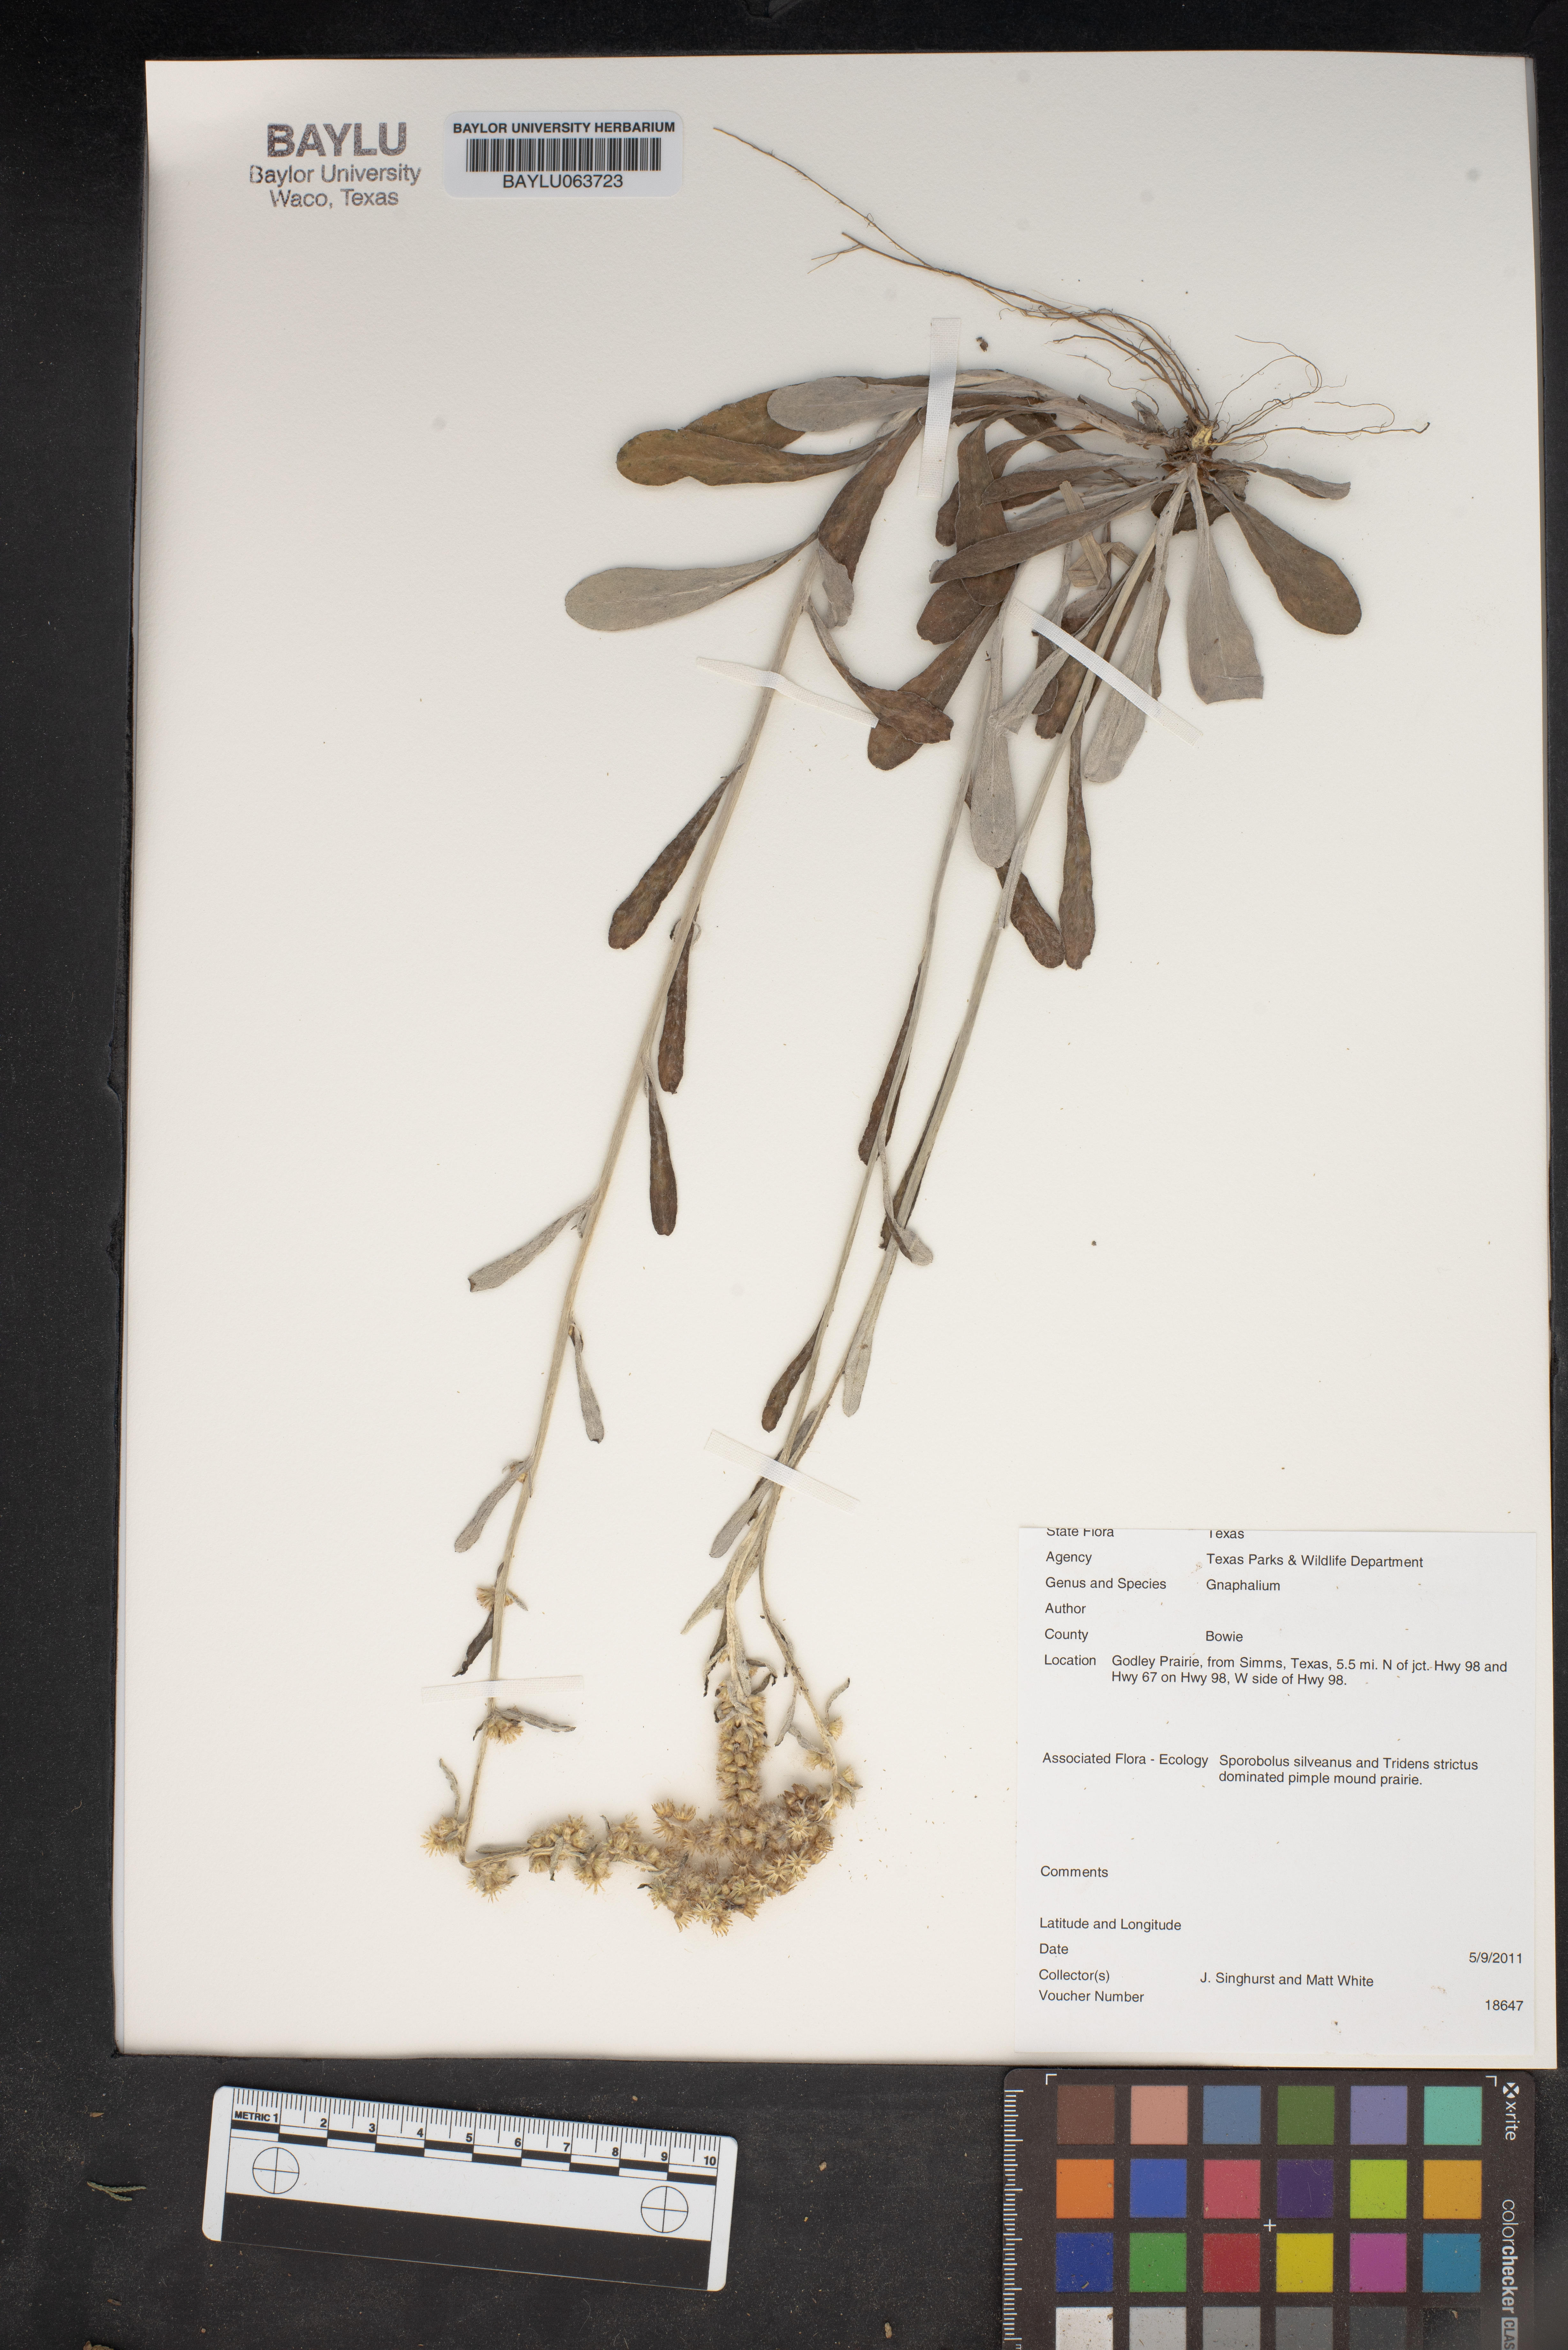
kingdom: Plantae
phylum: Tracheophyta
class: Magnoliopsida
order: Asterales
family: Asteraceae
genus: Gnaphalium
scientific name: Gnaphalium
